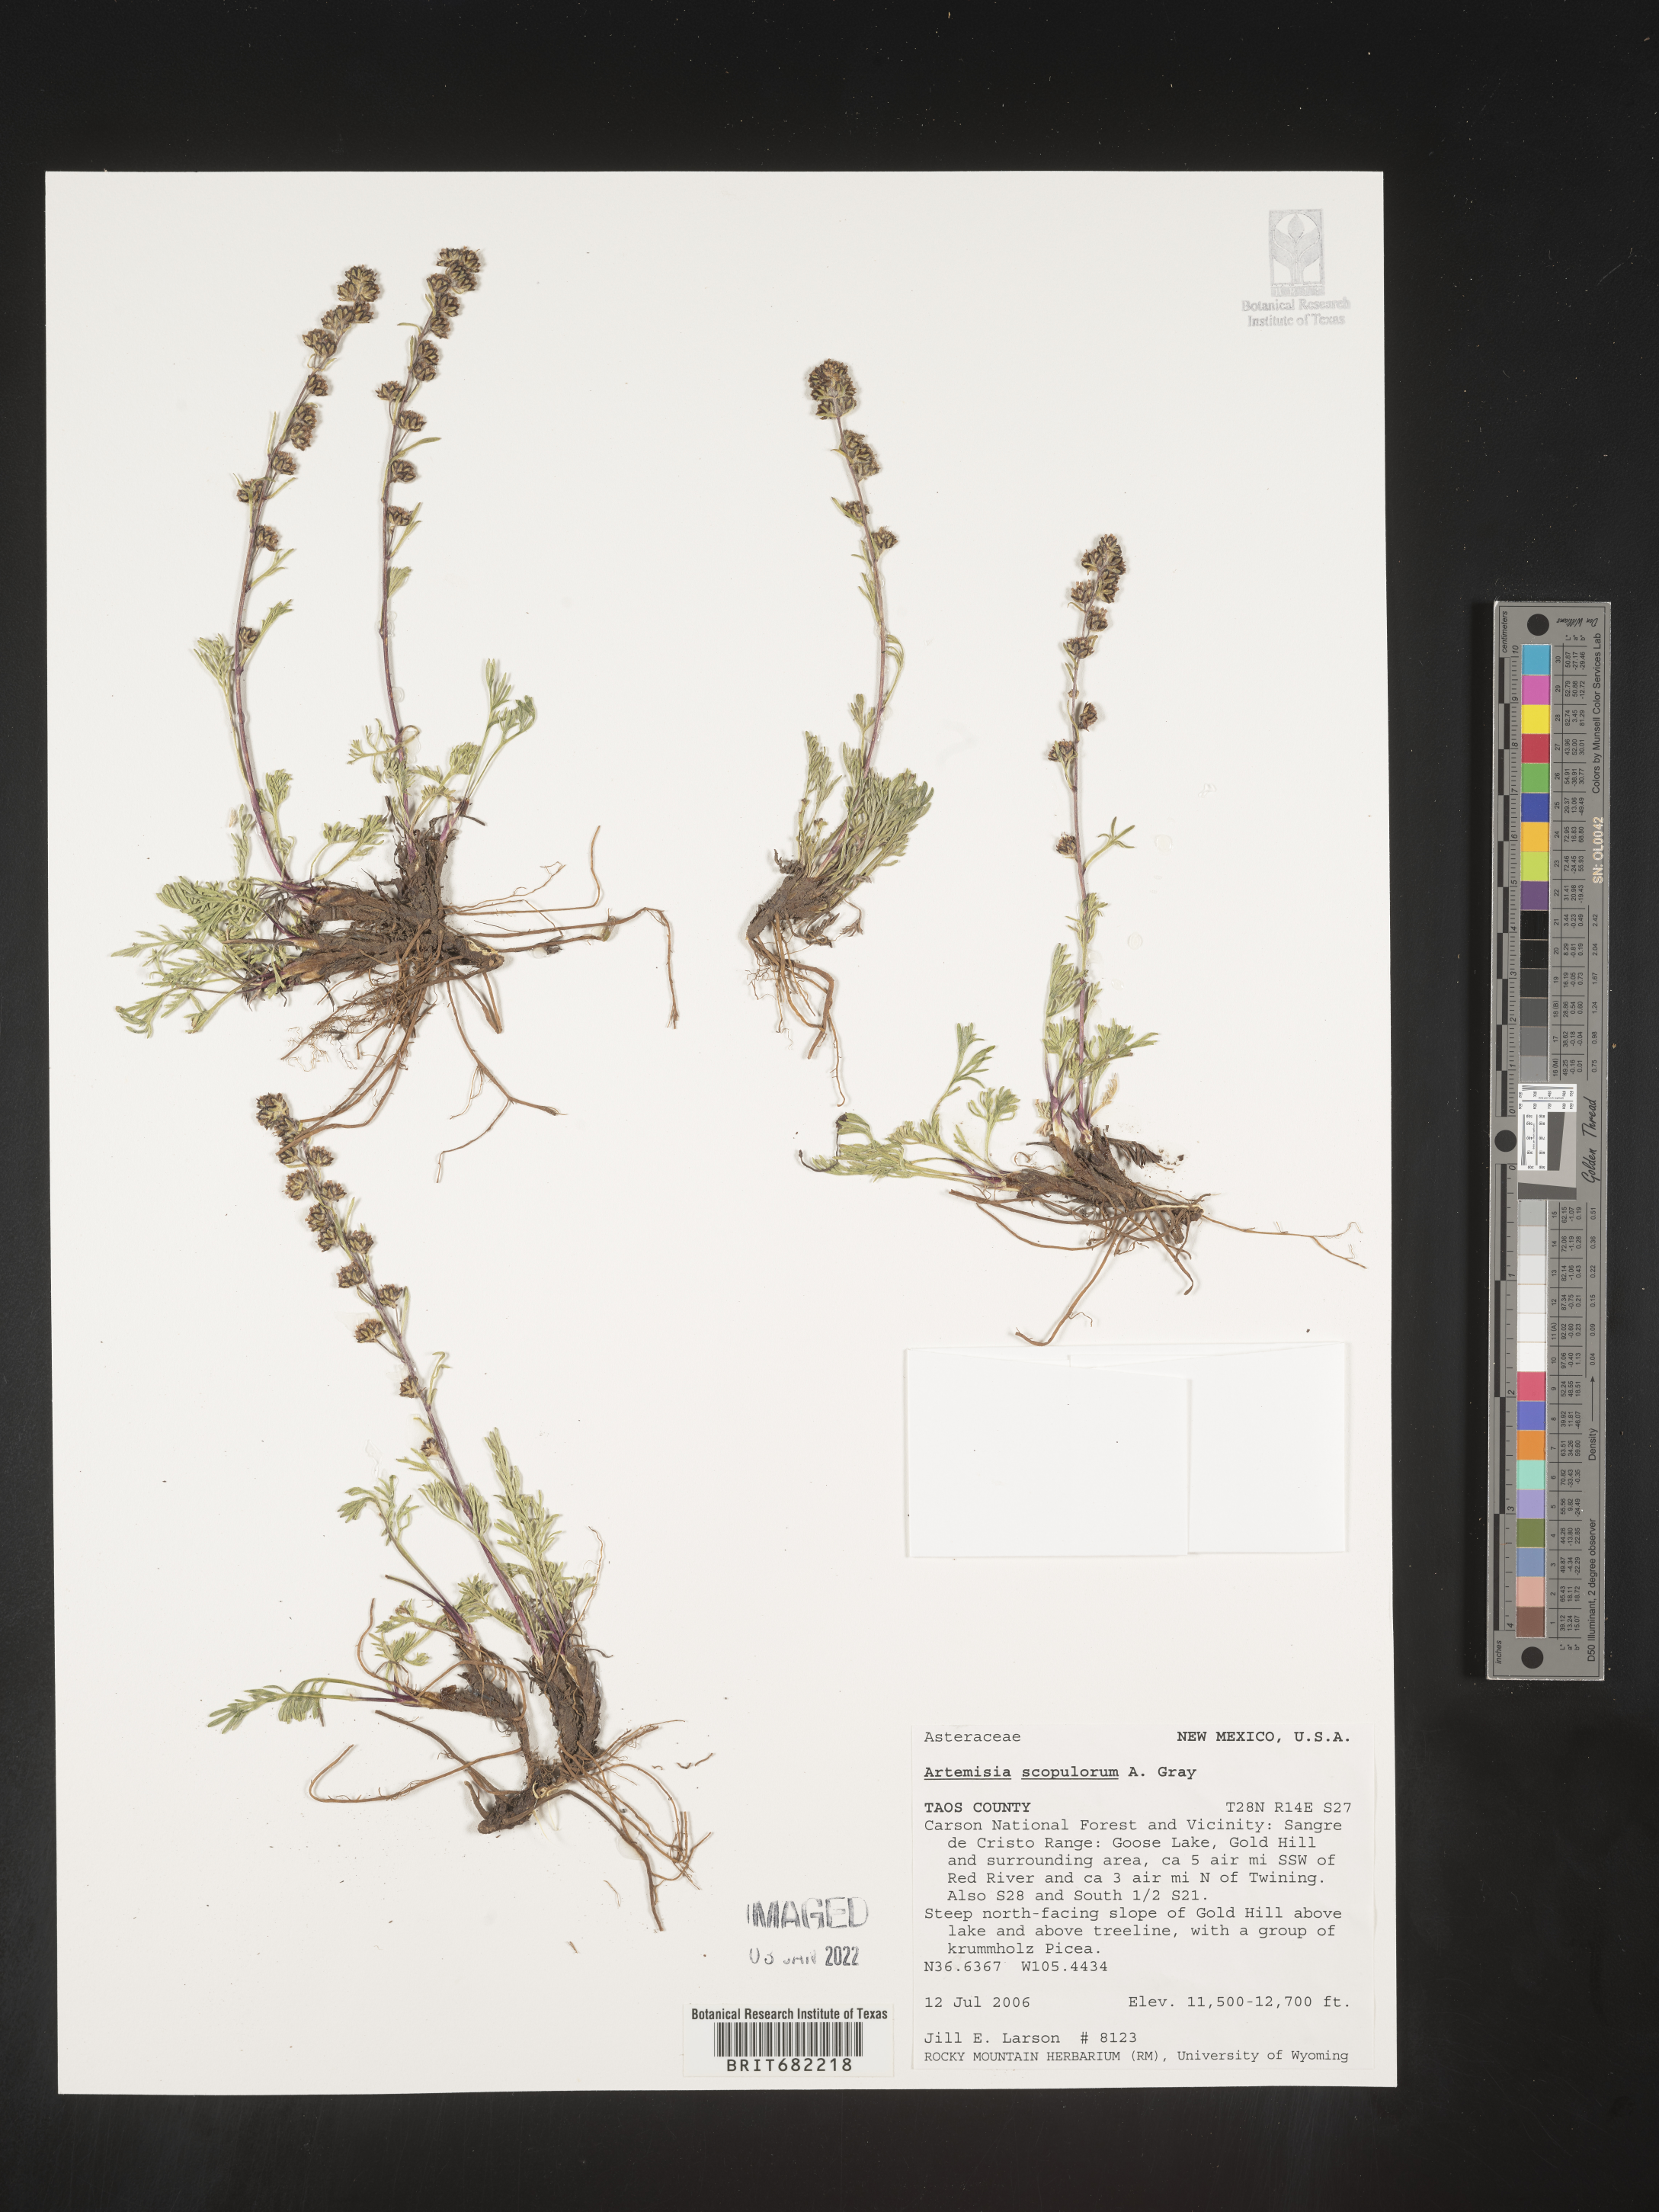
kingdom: Plantae
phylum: Tracheophyta
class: Magnoliopsida
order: Asterales
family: Asteraceae
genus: Artemisia
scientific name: Artemisia scopulorum
